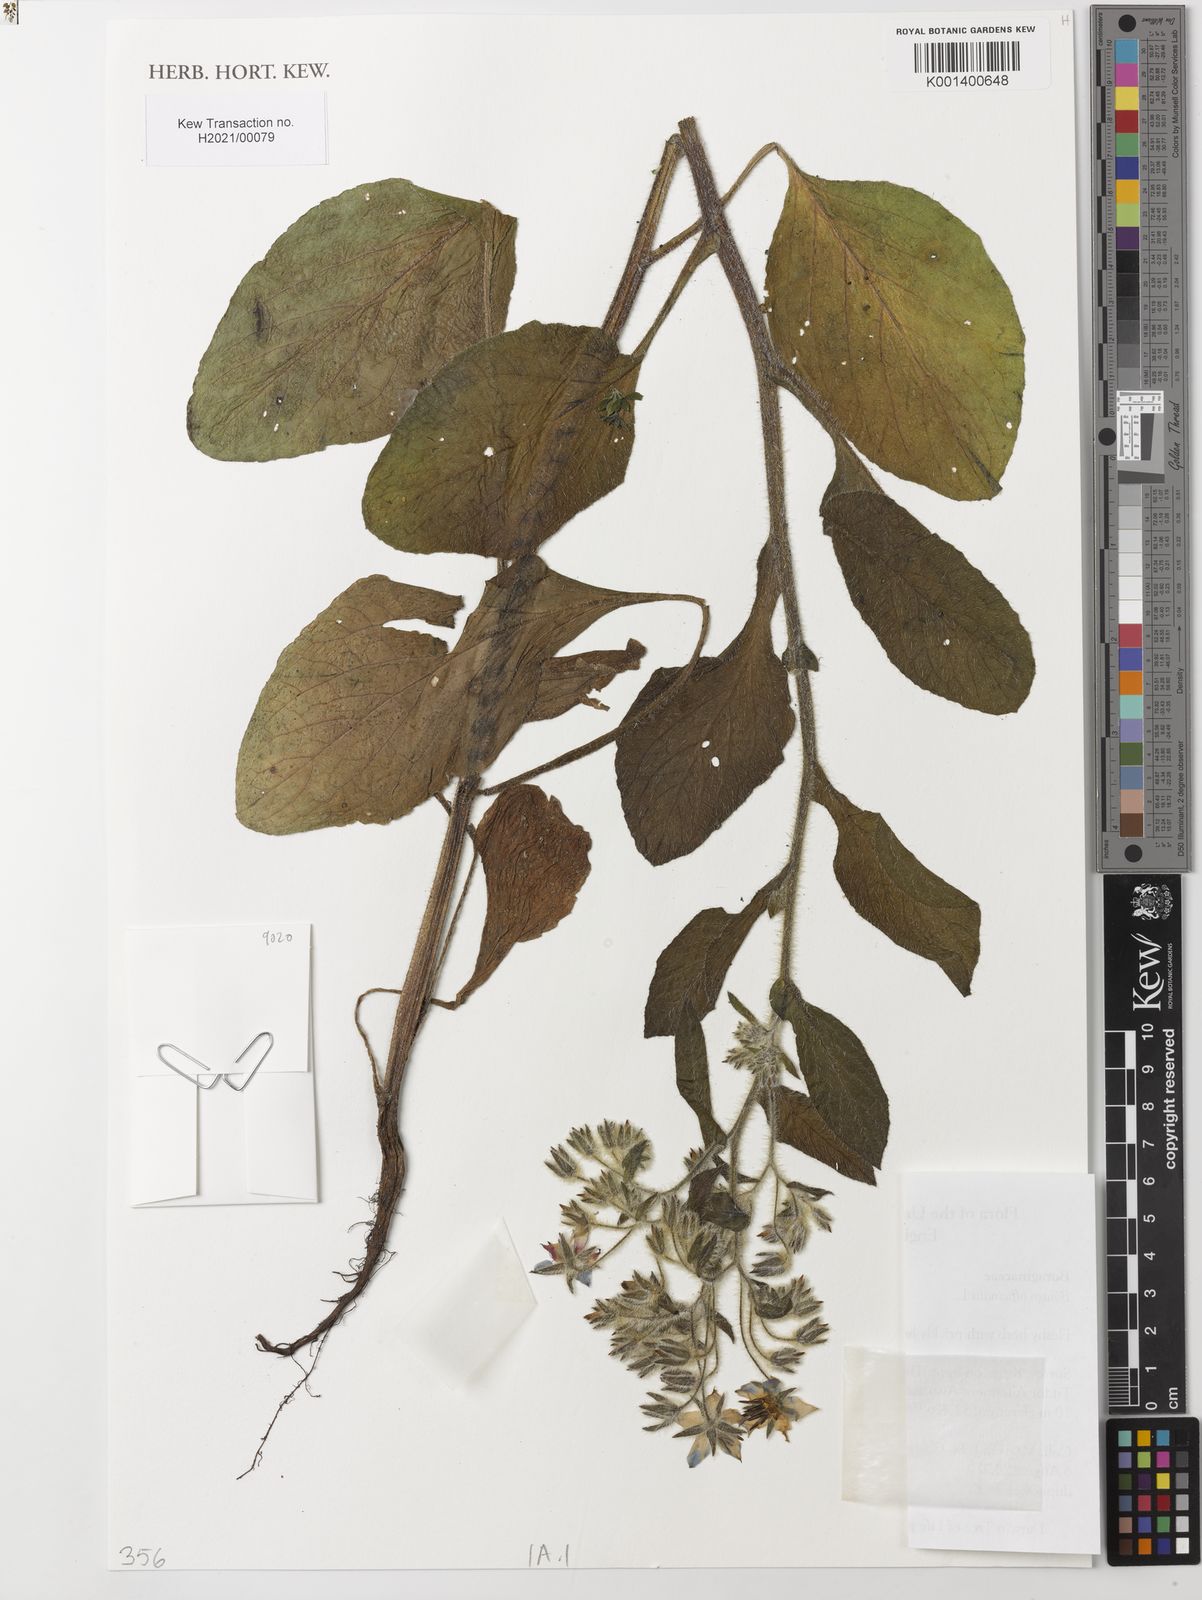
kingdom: Plantae
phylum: Tracheophyta
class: Magnoliopsida
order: Boraginales
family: Boraginaceae
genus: Borago
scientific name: Borago officinalis
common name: Borage
